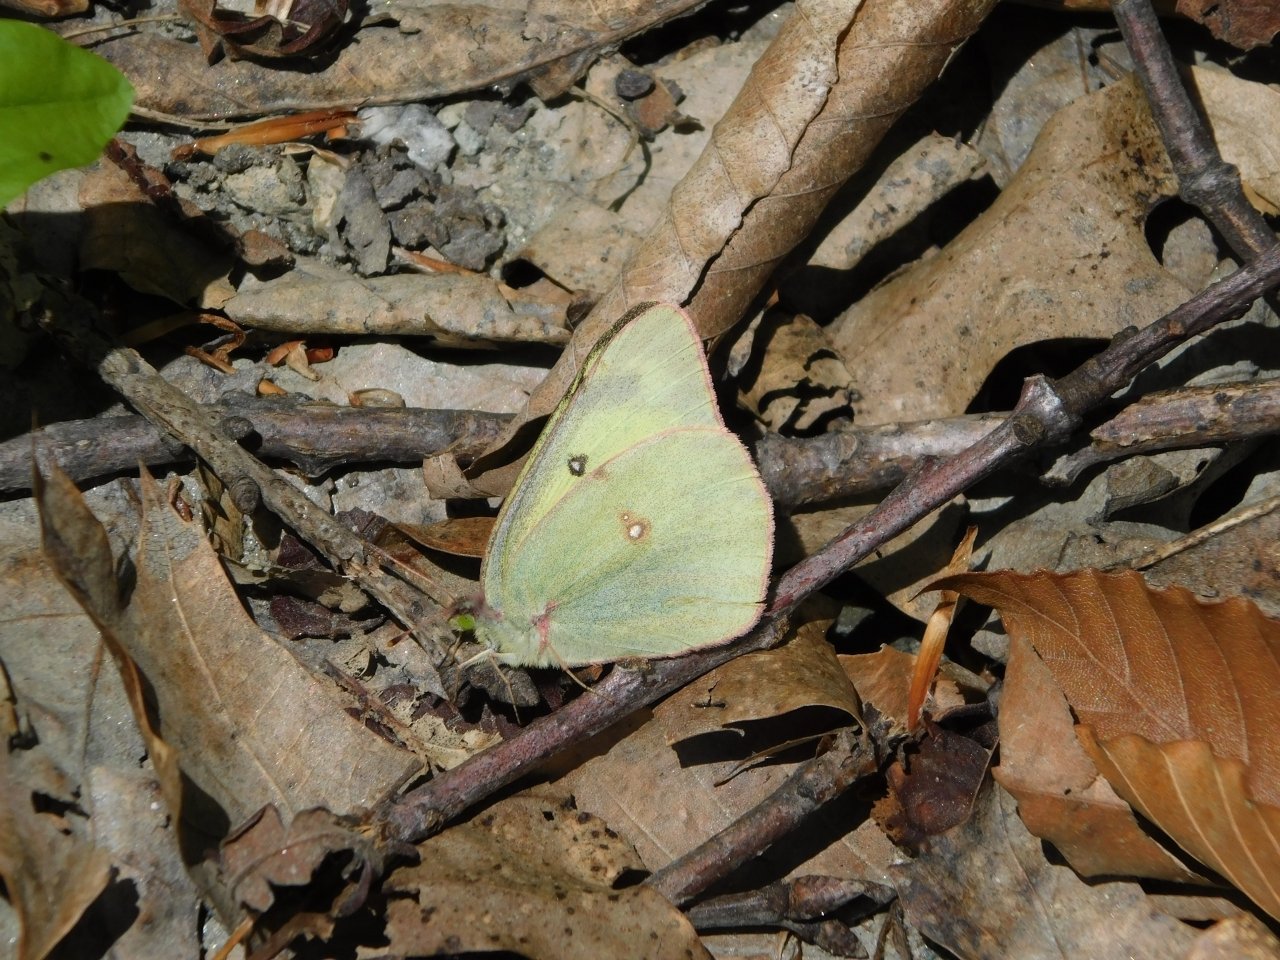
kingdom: Animalia
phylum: Arthropoda
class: Insecta
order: Lepidoptera
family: Pieridae
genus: Colias
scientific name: Colias philodice
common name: Clouded Sulphur
